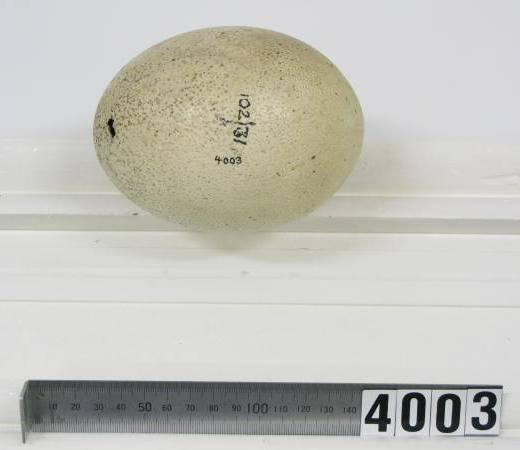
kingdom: Animalia
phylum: Chordata
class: Aves
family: Emeidae
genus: Euryapteryx
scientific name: Euryapteryx curtus
